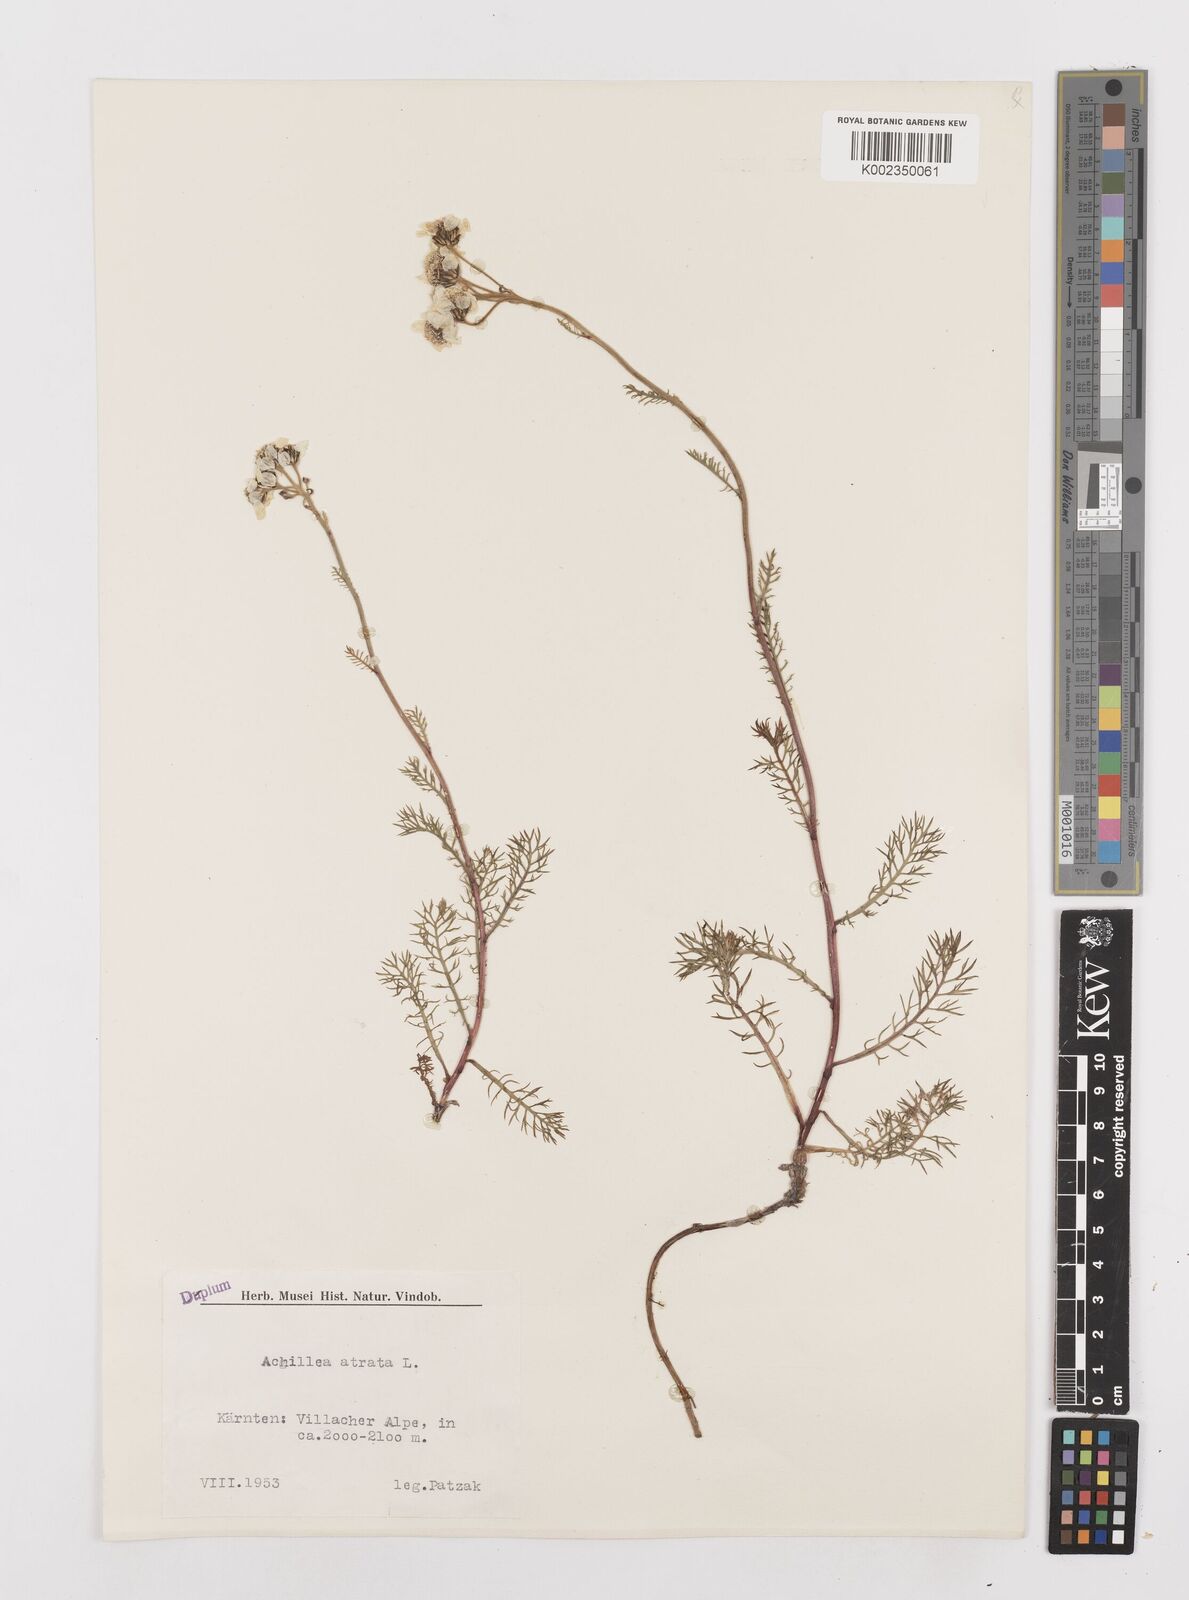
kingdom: Plantae
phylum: Tracheophyta
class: Magnoliopsida
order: Asterales
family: Asteraceae
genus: Achillea
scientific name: Achillea atrata
